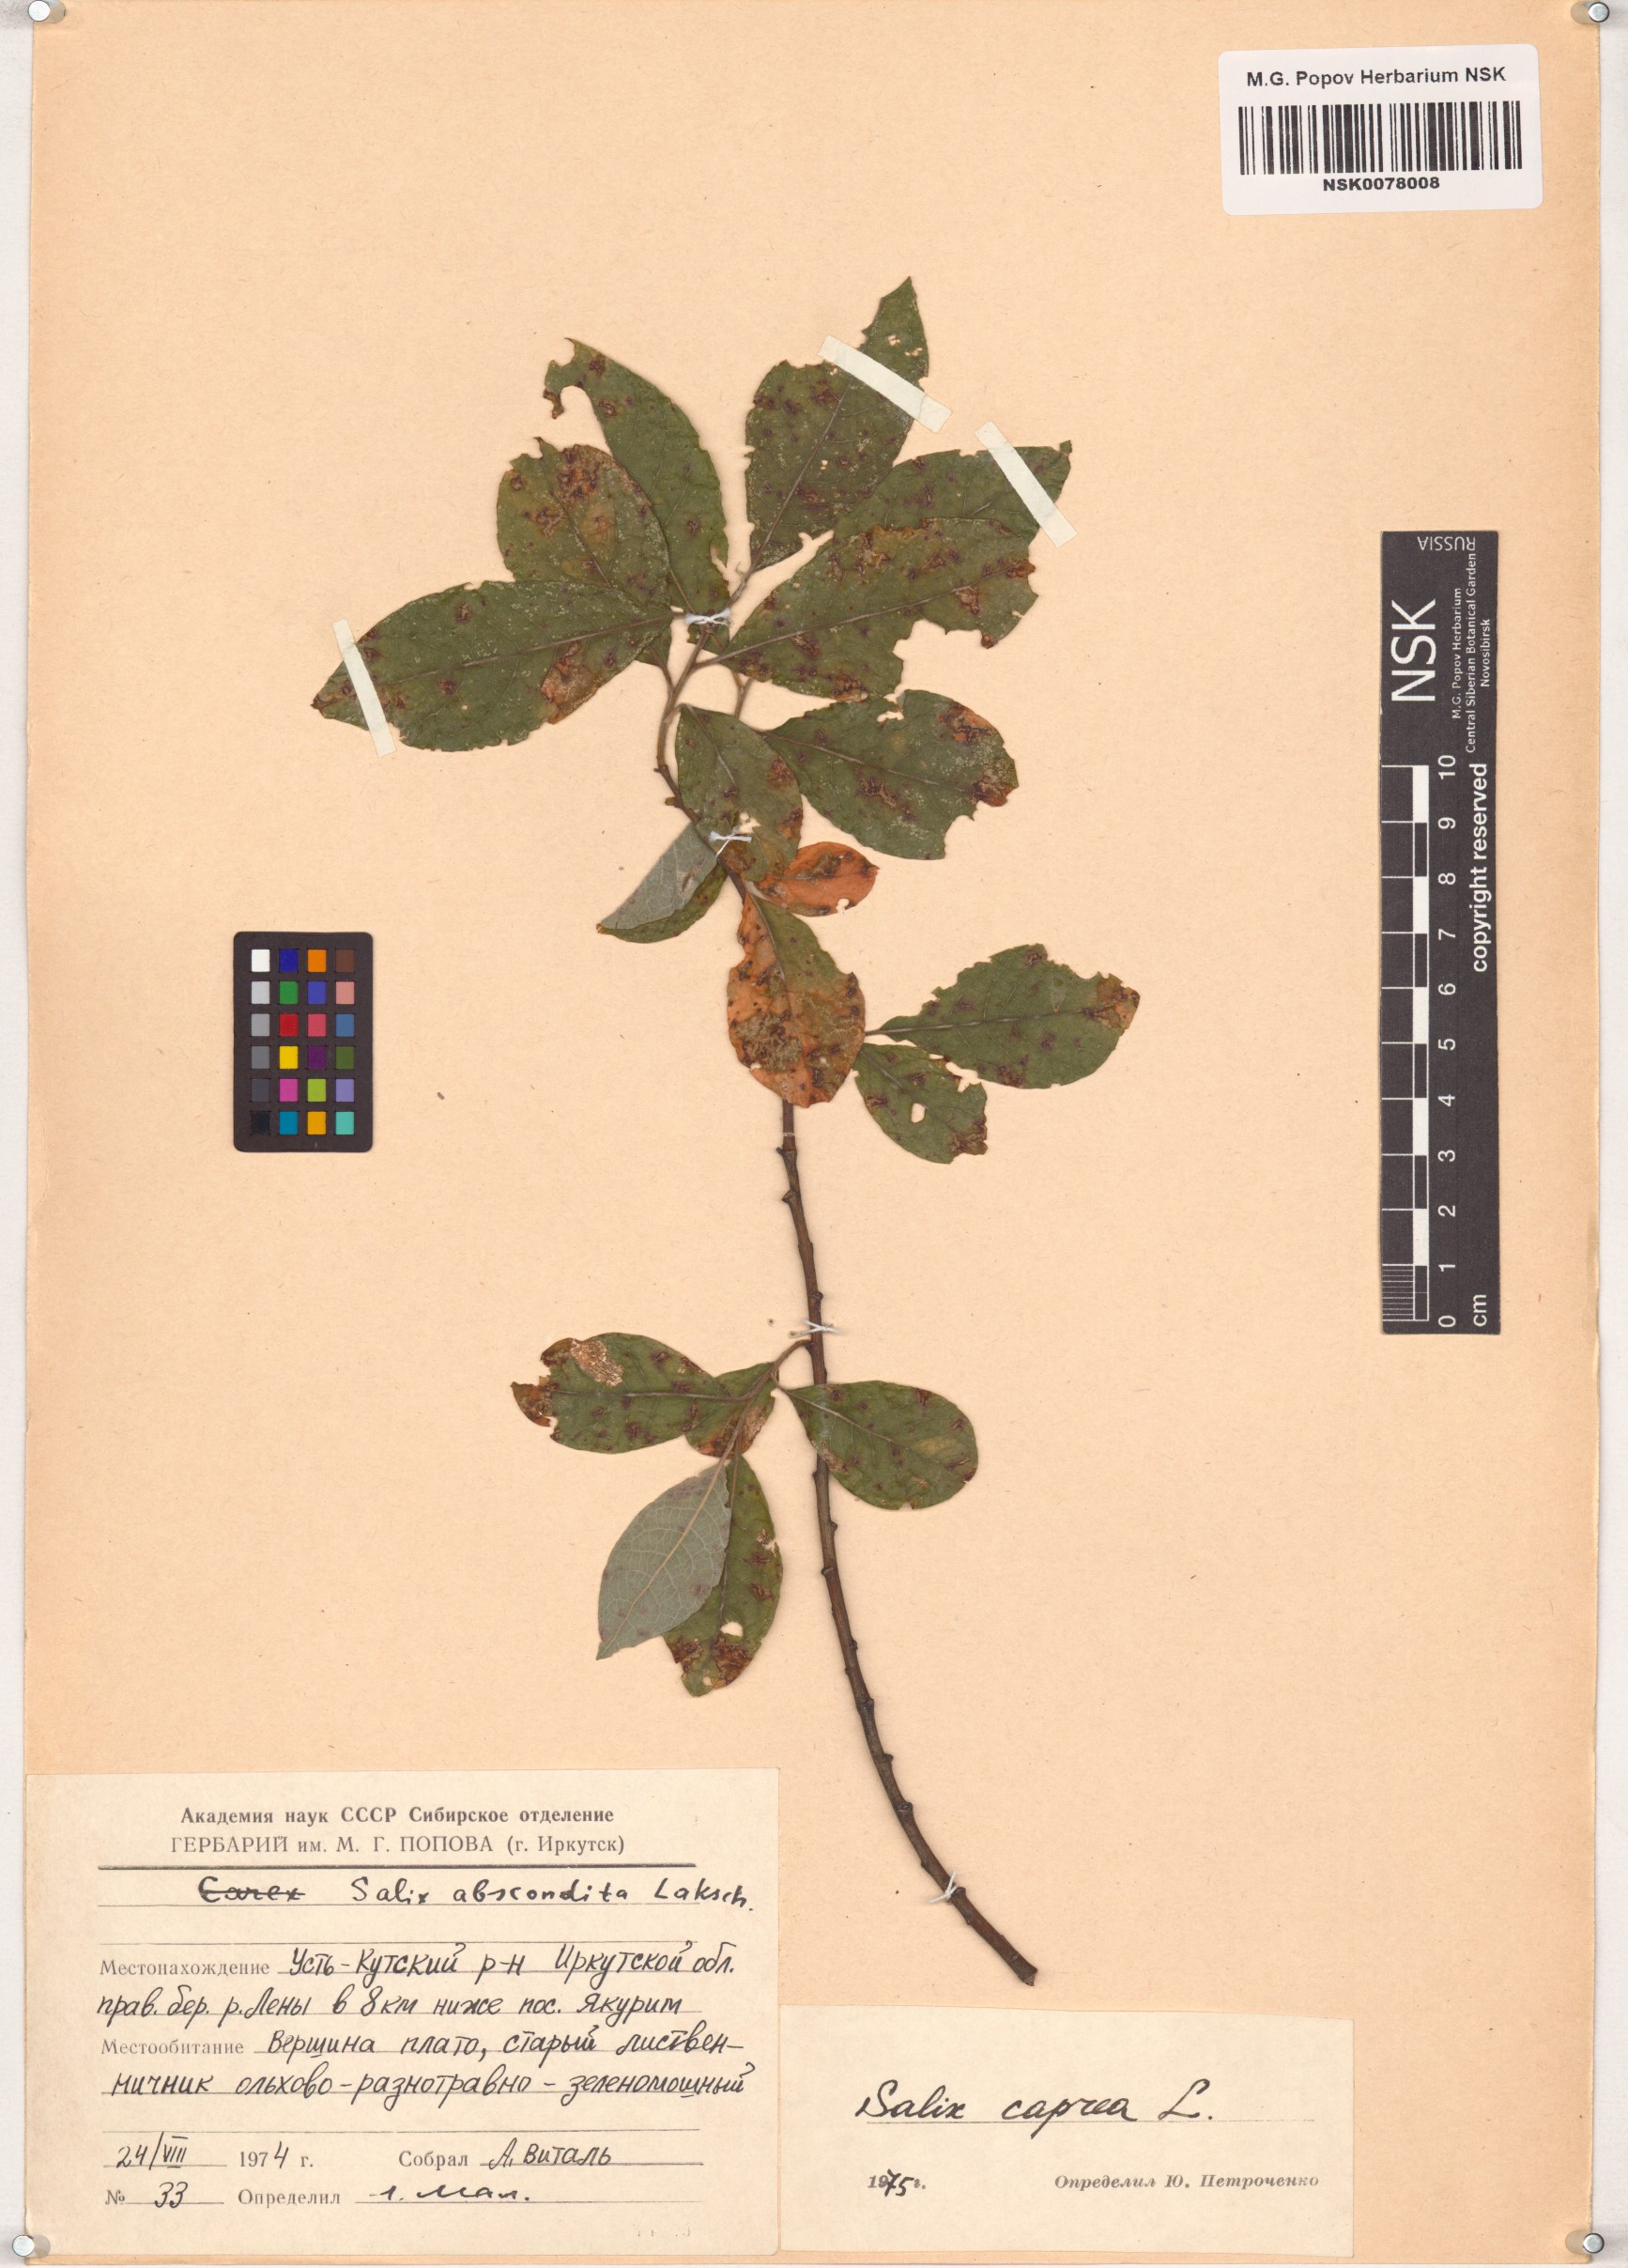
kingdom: Plantae
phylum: Tracheophyta
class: Magnoliopsida
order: Malpighiales
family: Salicaceae
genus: Salix
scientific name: Salix caprea
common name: Goat willow
